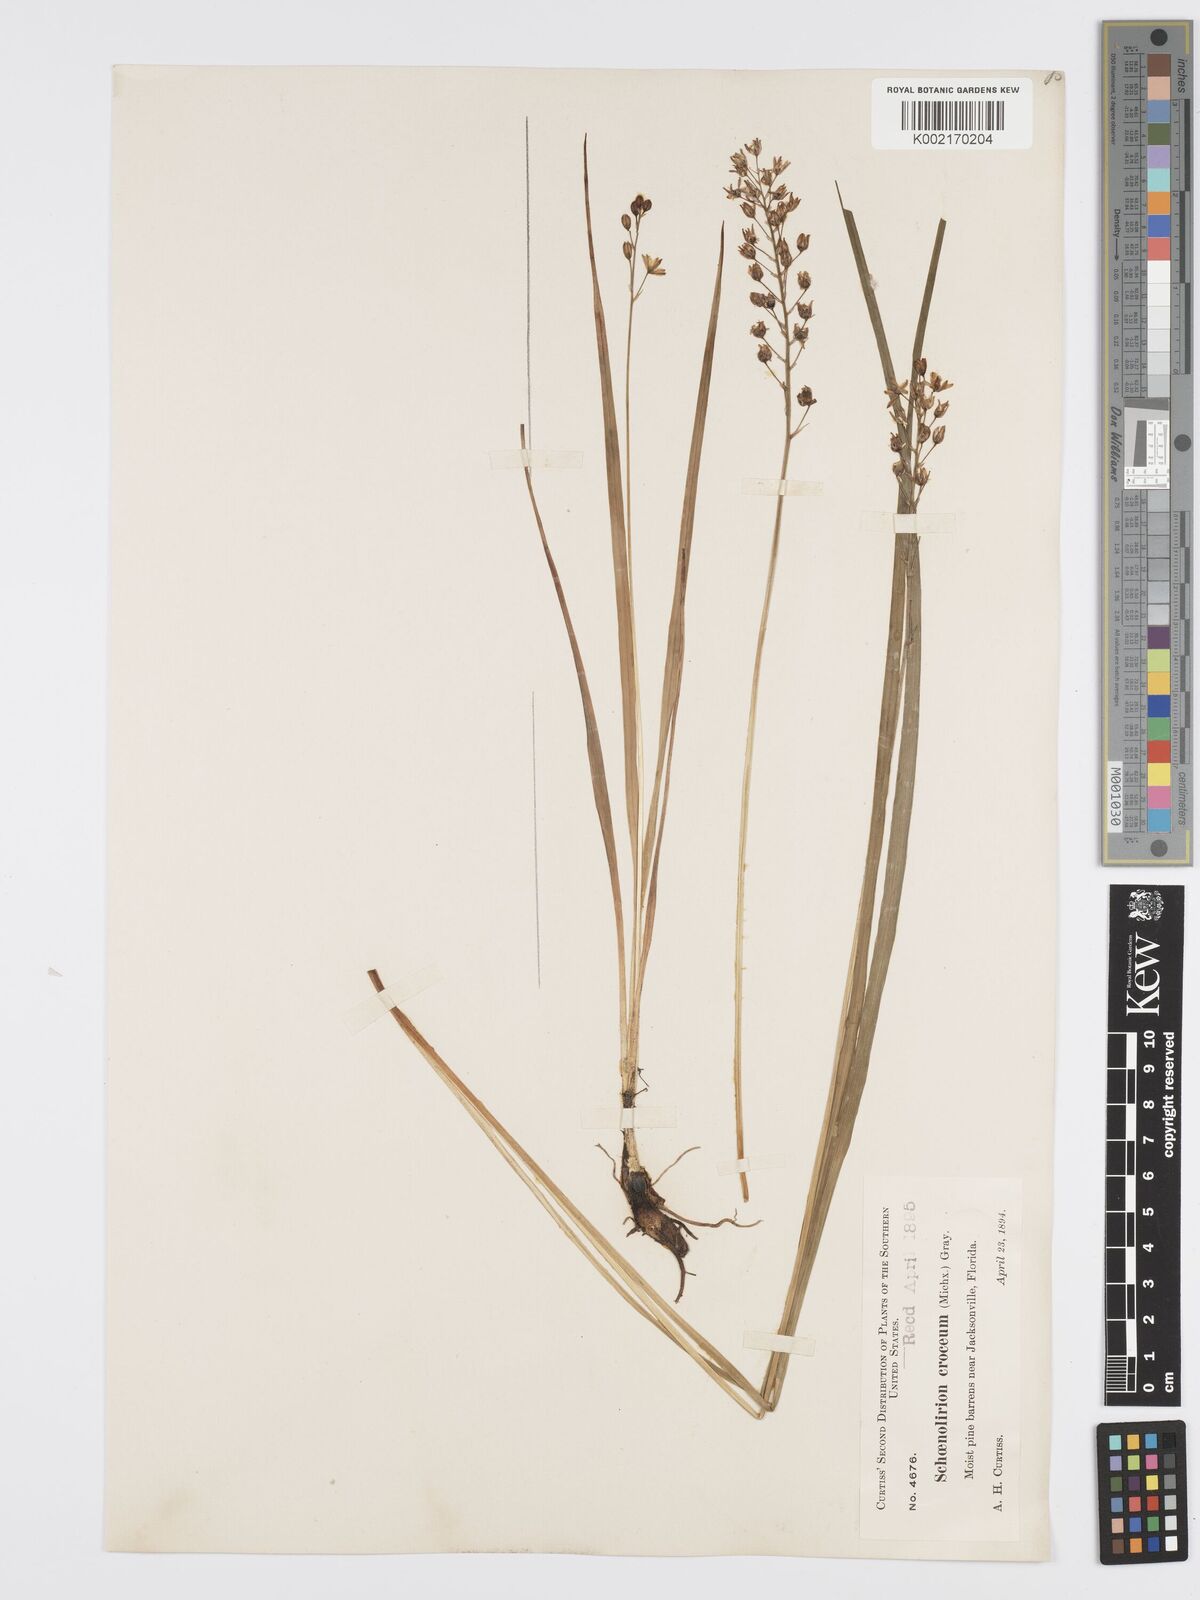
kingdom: Plantae
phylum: Tracheophyta
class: Liliopsida
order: Asparagales
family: Asparagaceae
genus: Schoenolirion
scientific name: Schoenolirion croceum
